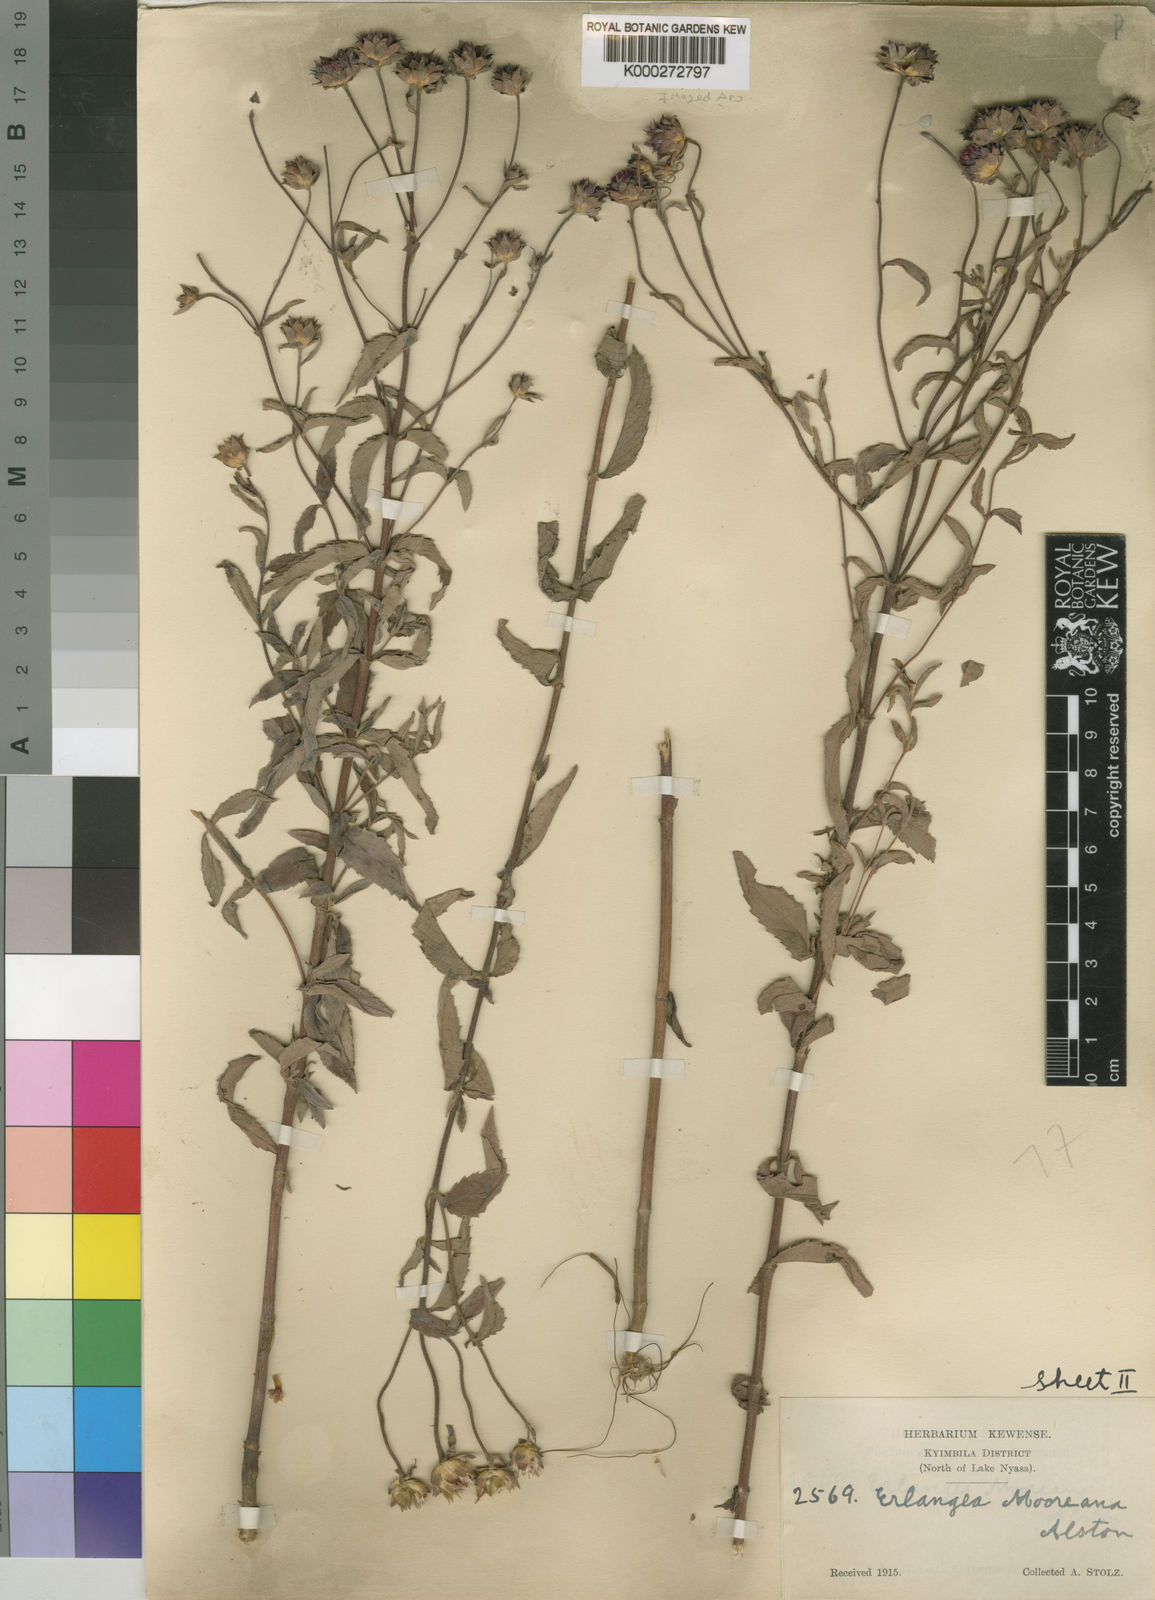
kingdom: Plantae
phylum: Tracheophyta
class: Magnoliopsida
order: Asterales
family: Asteraceae
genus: Bothriocline
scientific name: Bothriocline trifoliata
